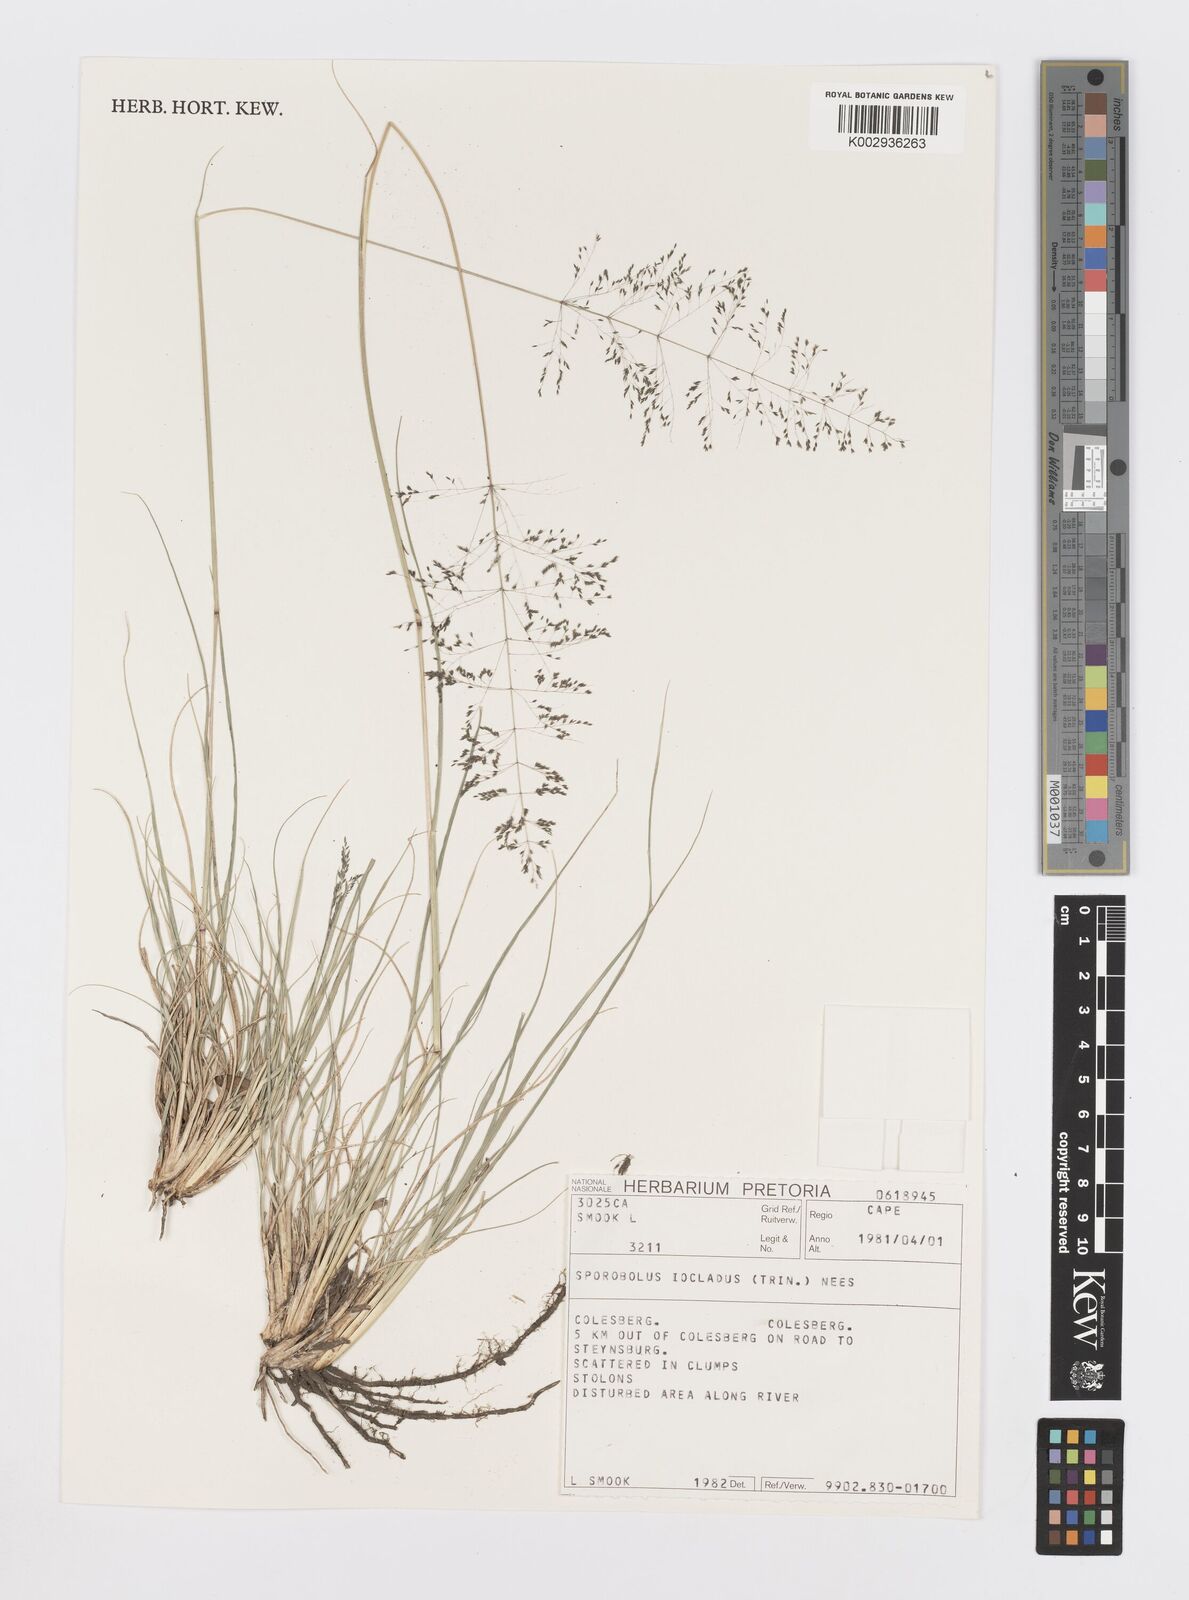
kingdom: Plantae
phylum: Tracheophyta
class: Liliopsida
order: Poales
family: Poaceae
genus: Sporobolus
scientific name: Sporobolus ioclados
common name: Pan dropseed
